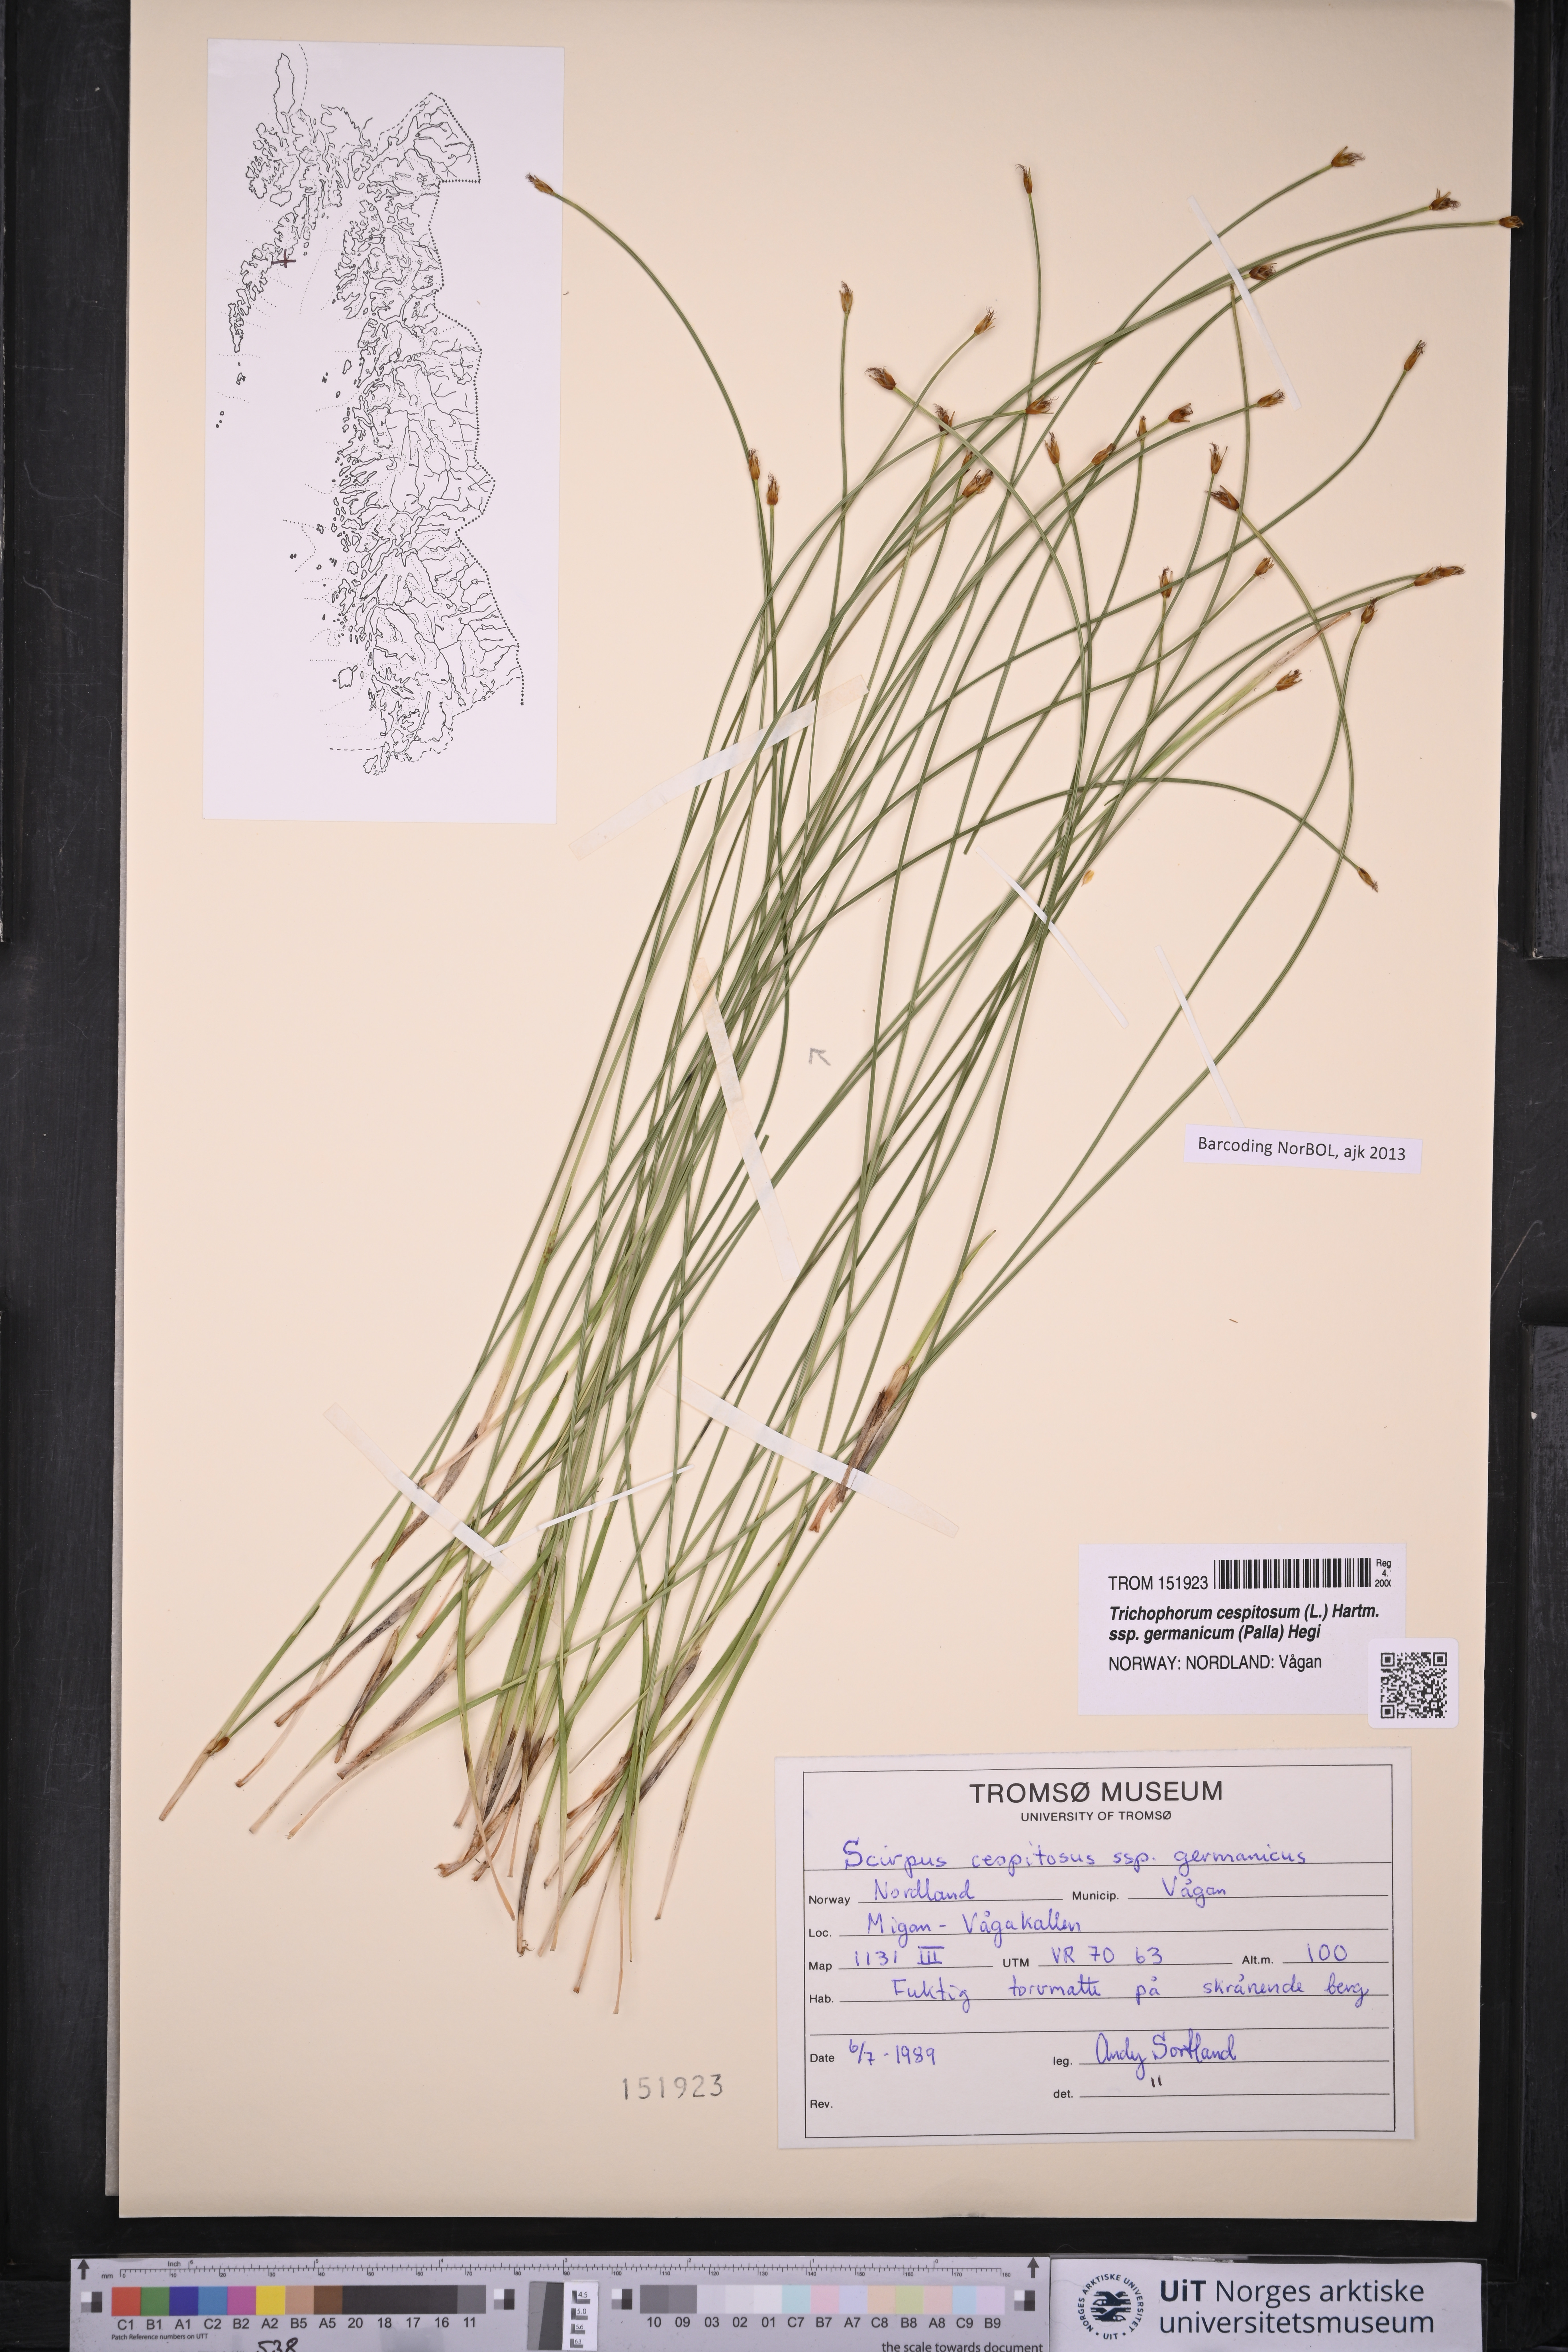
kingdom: Plantae
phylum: Tracheophyta
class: Liliopsida
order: Poales
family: Cyperaceae
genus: Trichophorum
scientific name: Trichophorum cespitosum
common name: Cespitose bulrush
